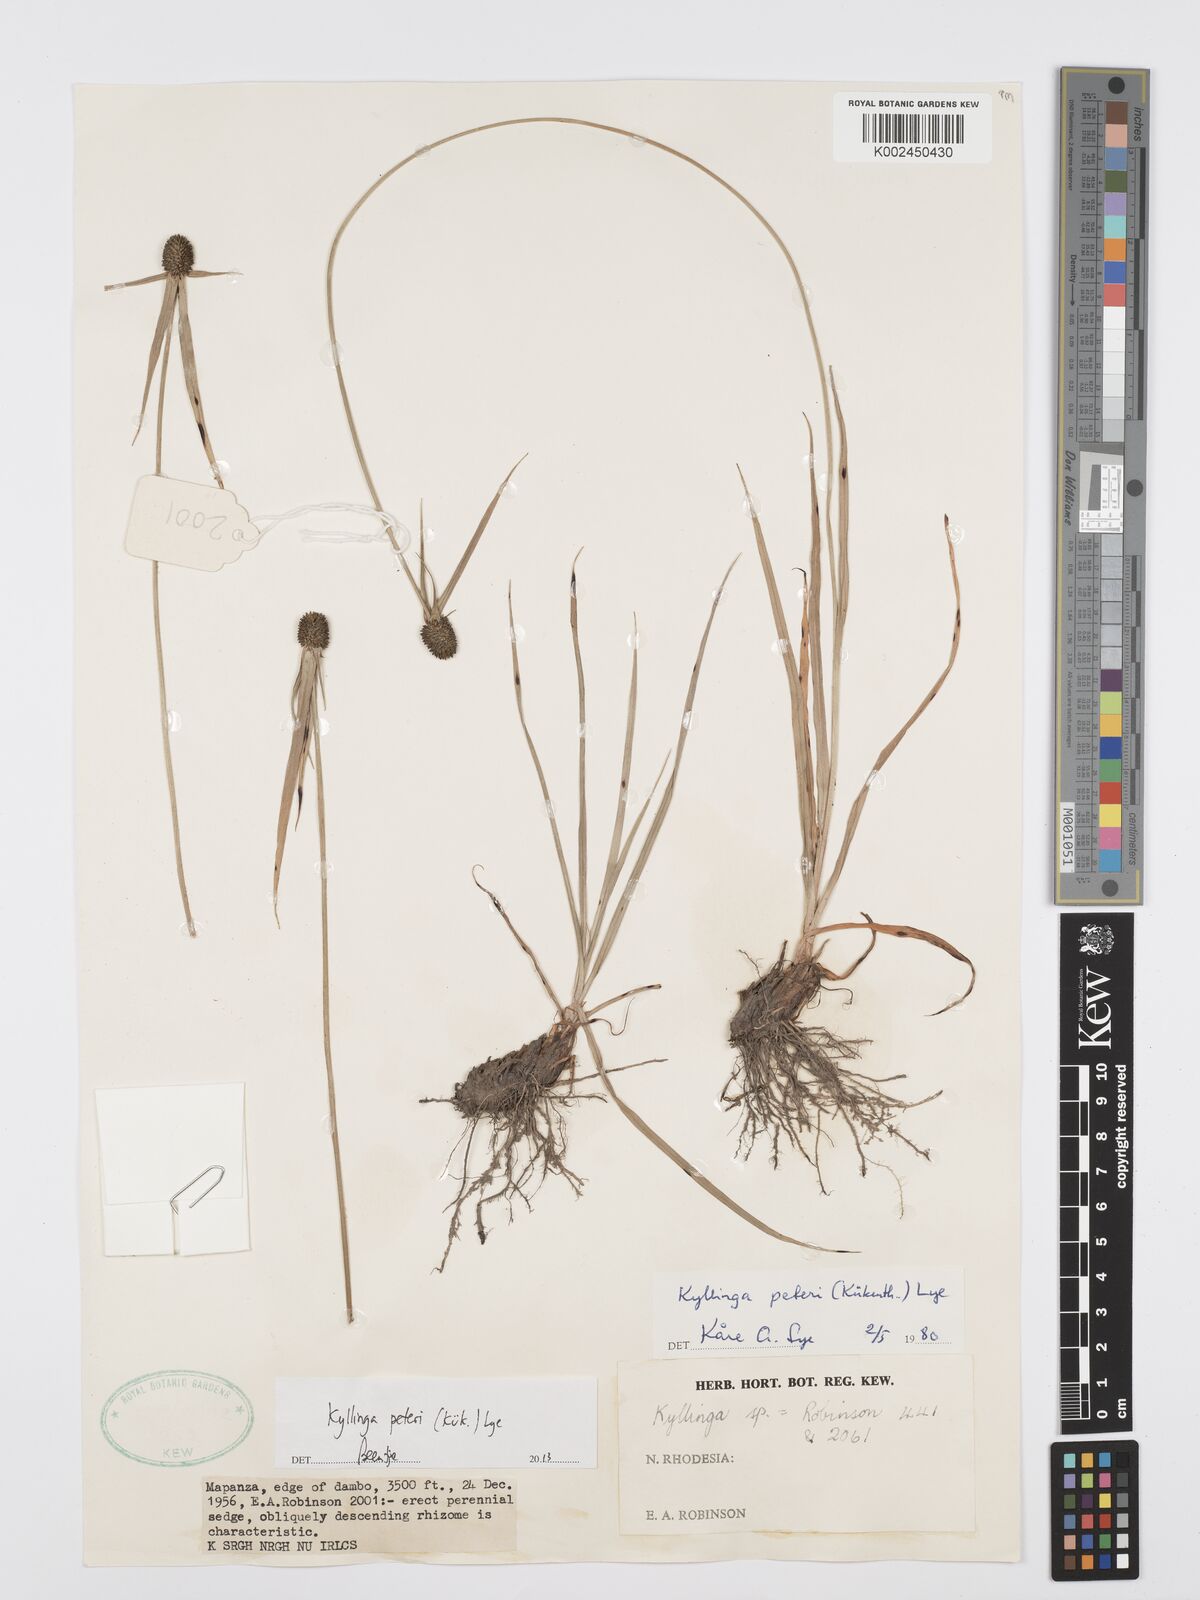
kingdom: Plantae
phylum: Tracheophyta
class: Liliopsida
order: Poales
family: Cyperaceae
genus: Cyperus
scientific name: Cyperus peteri
